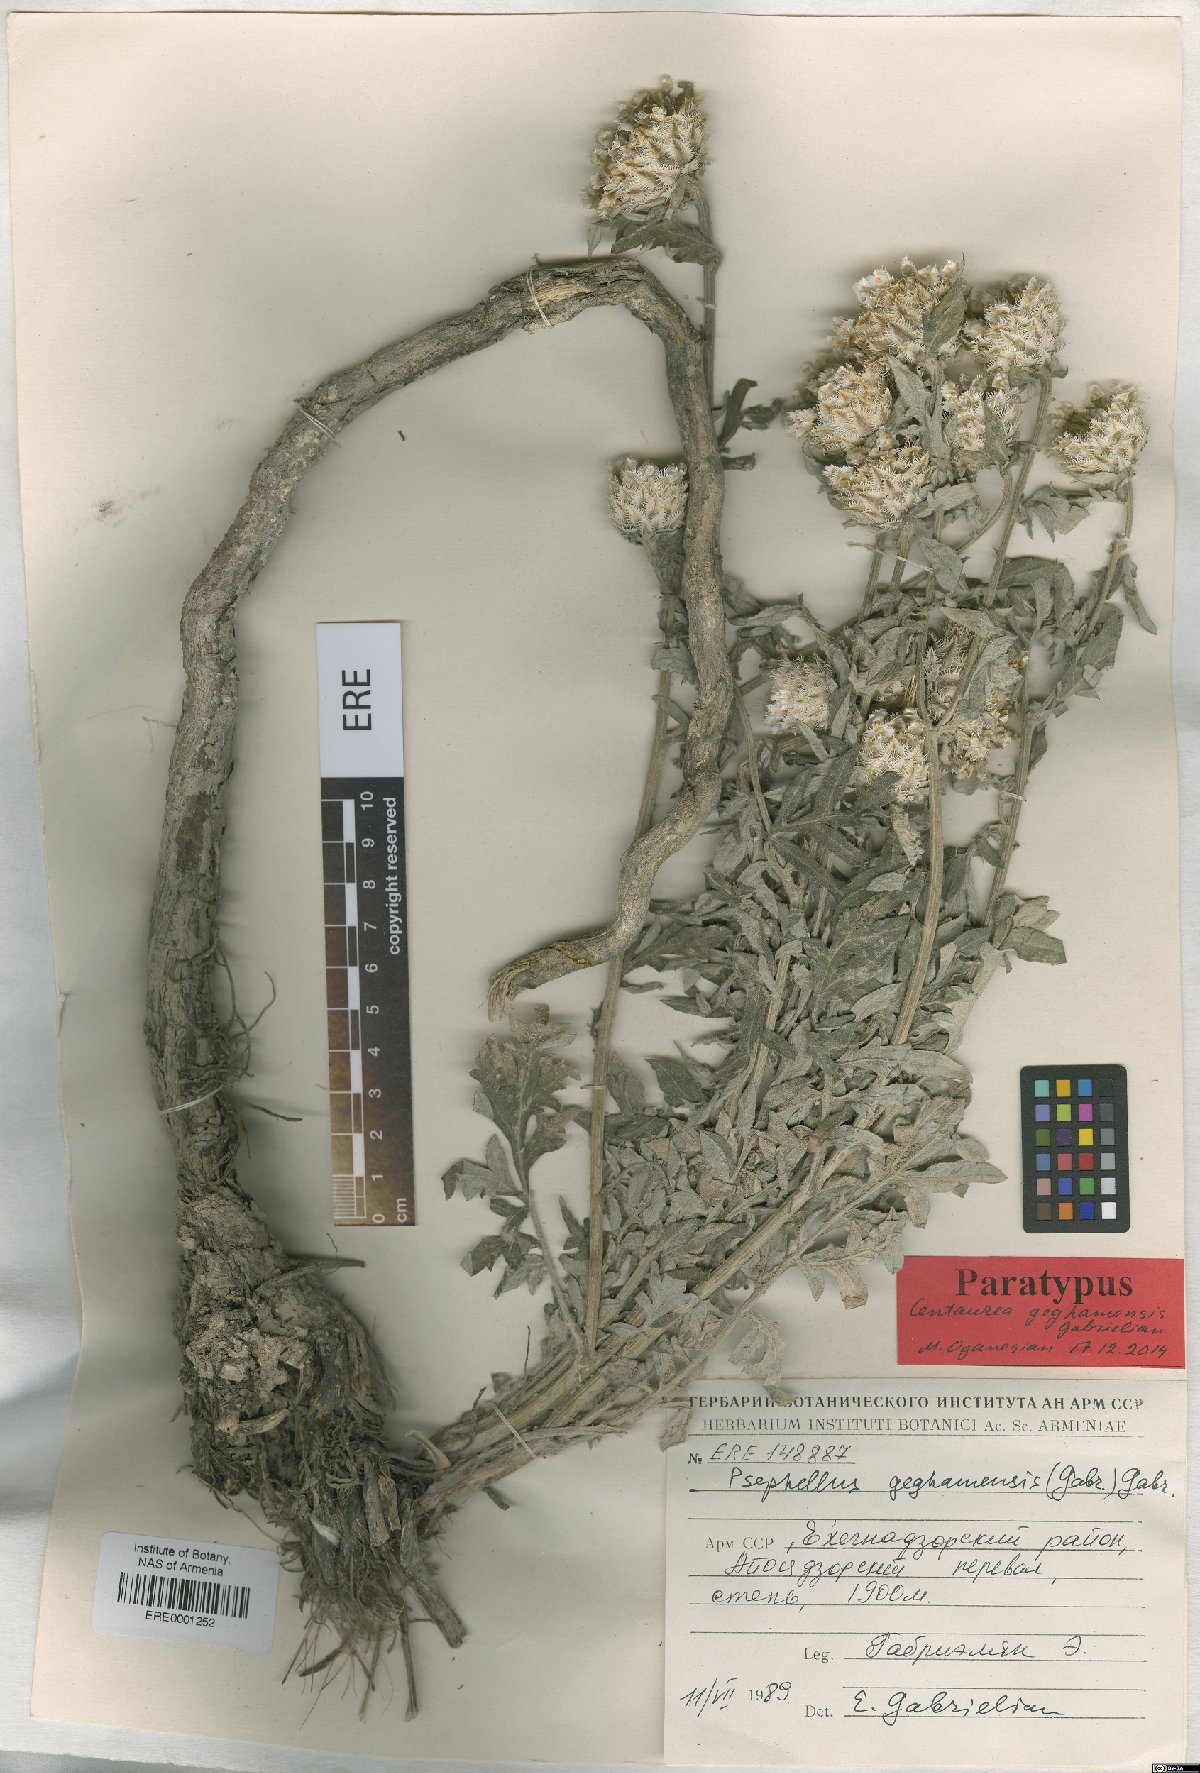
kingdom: Plantae
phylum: Tracheophyta
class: Magnoliopsida
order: Asterales
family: Asteraceae
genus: Psephellus
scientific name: Psephellus geghamensis
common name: Geghamian cornflower
